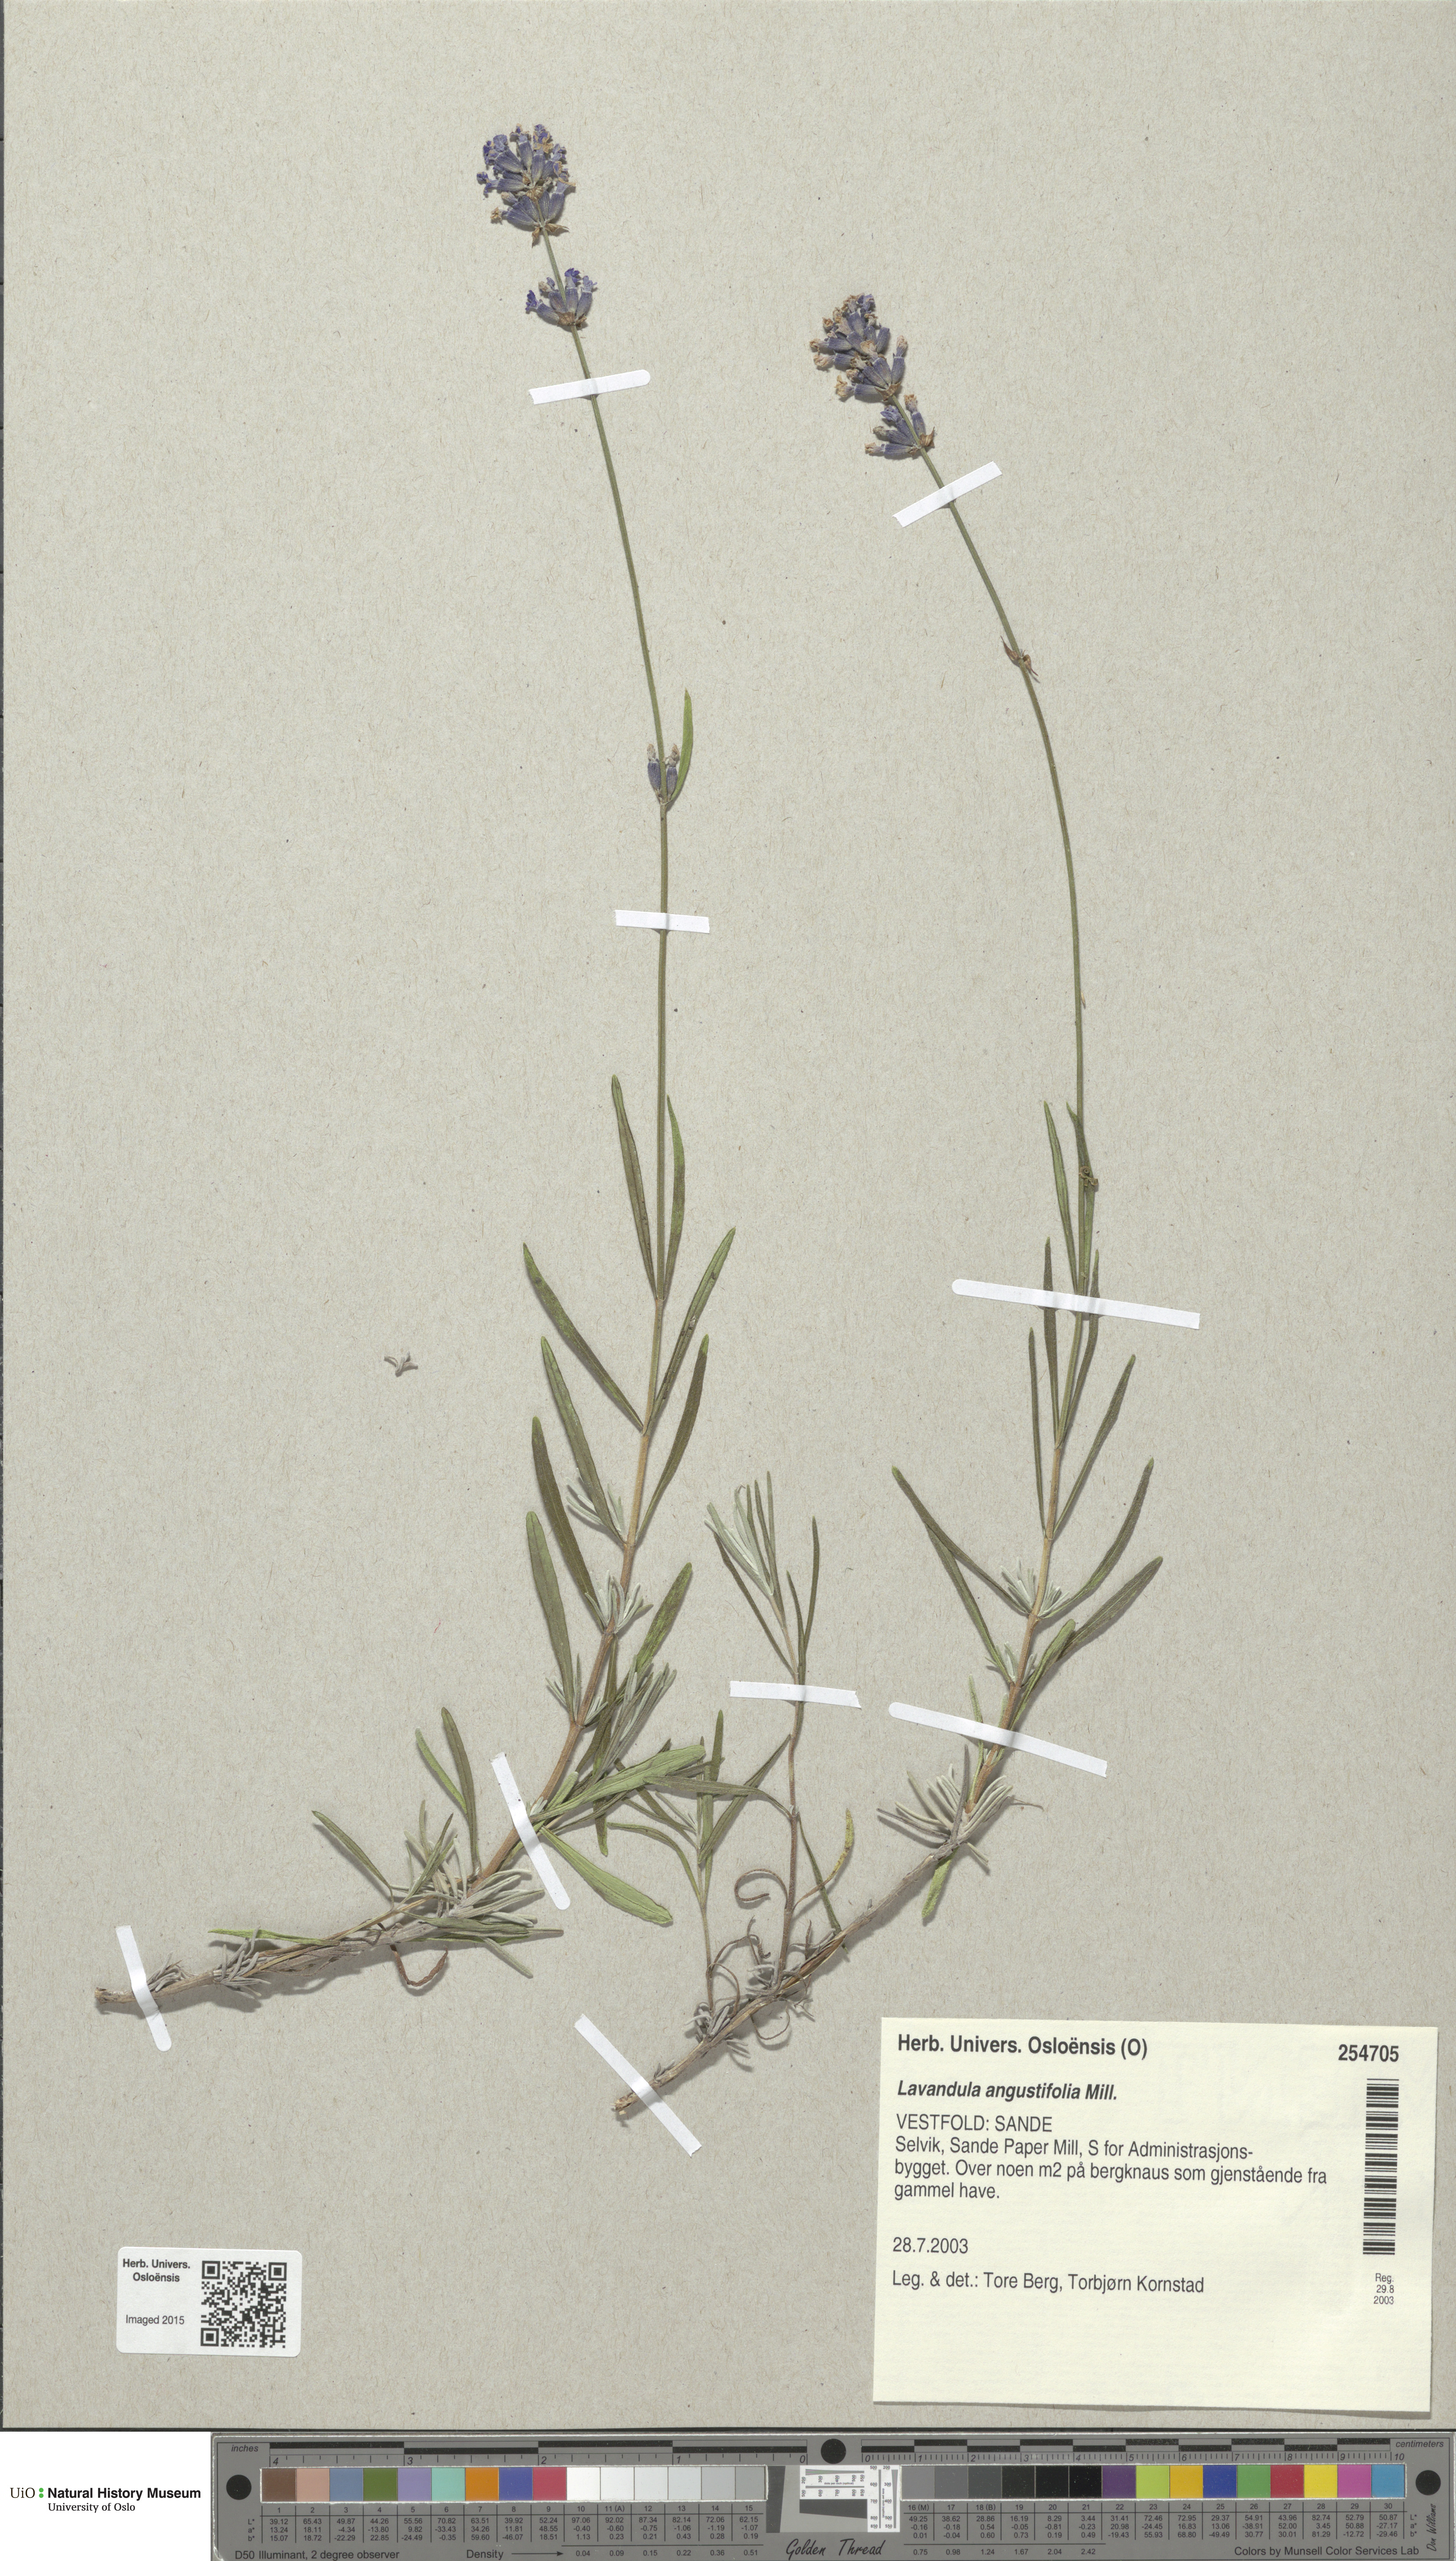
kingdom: Plantae
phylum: Tracheophyta
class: Magnoliopsida
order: Lamiales
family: Lamiaceae
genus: Lavandula
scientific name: Lavandula angustifolia
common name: Garden lavender
